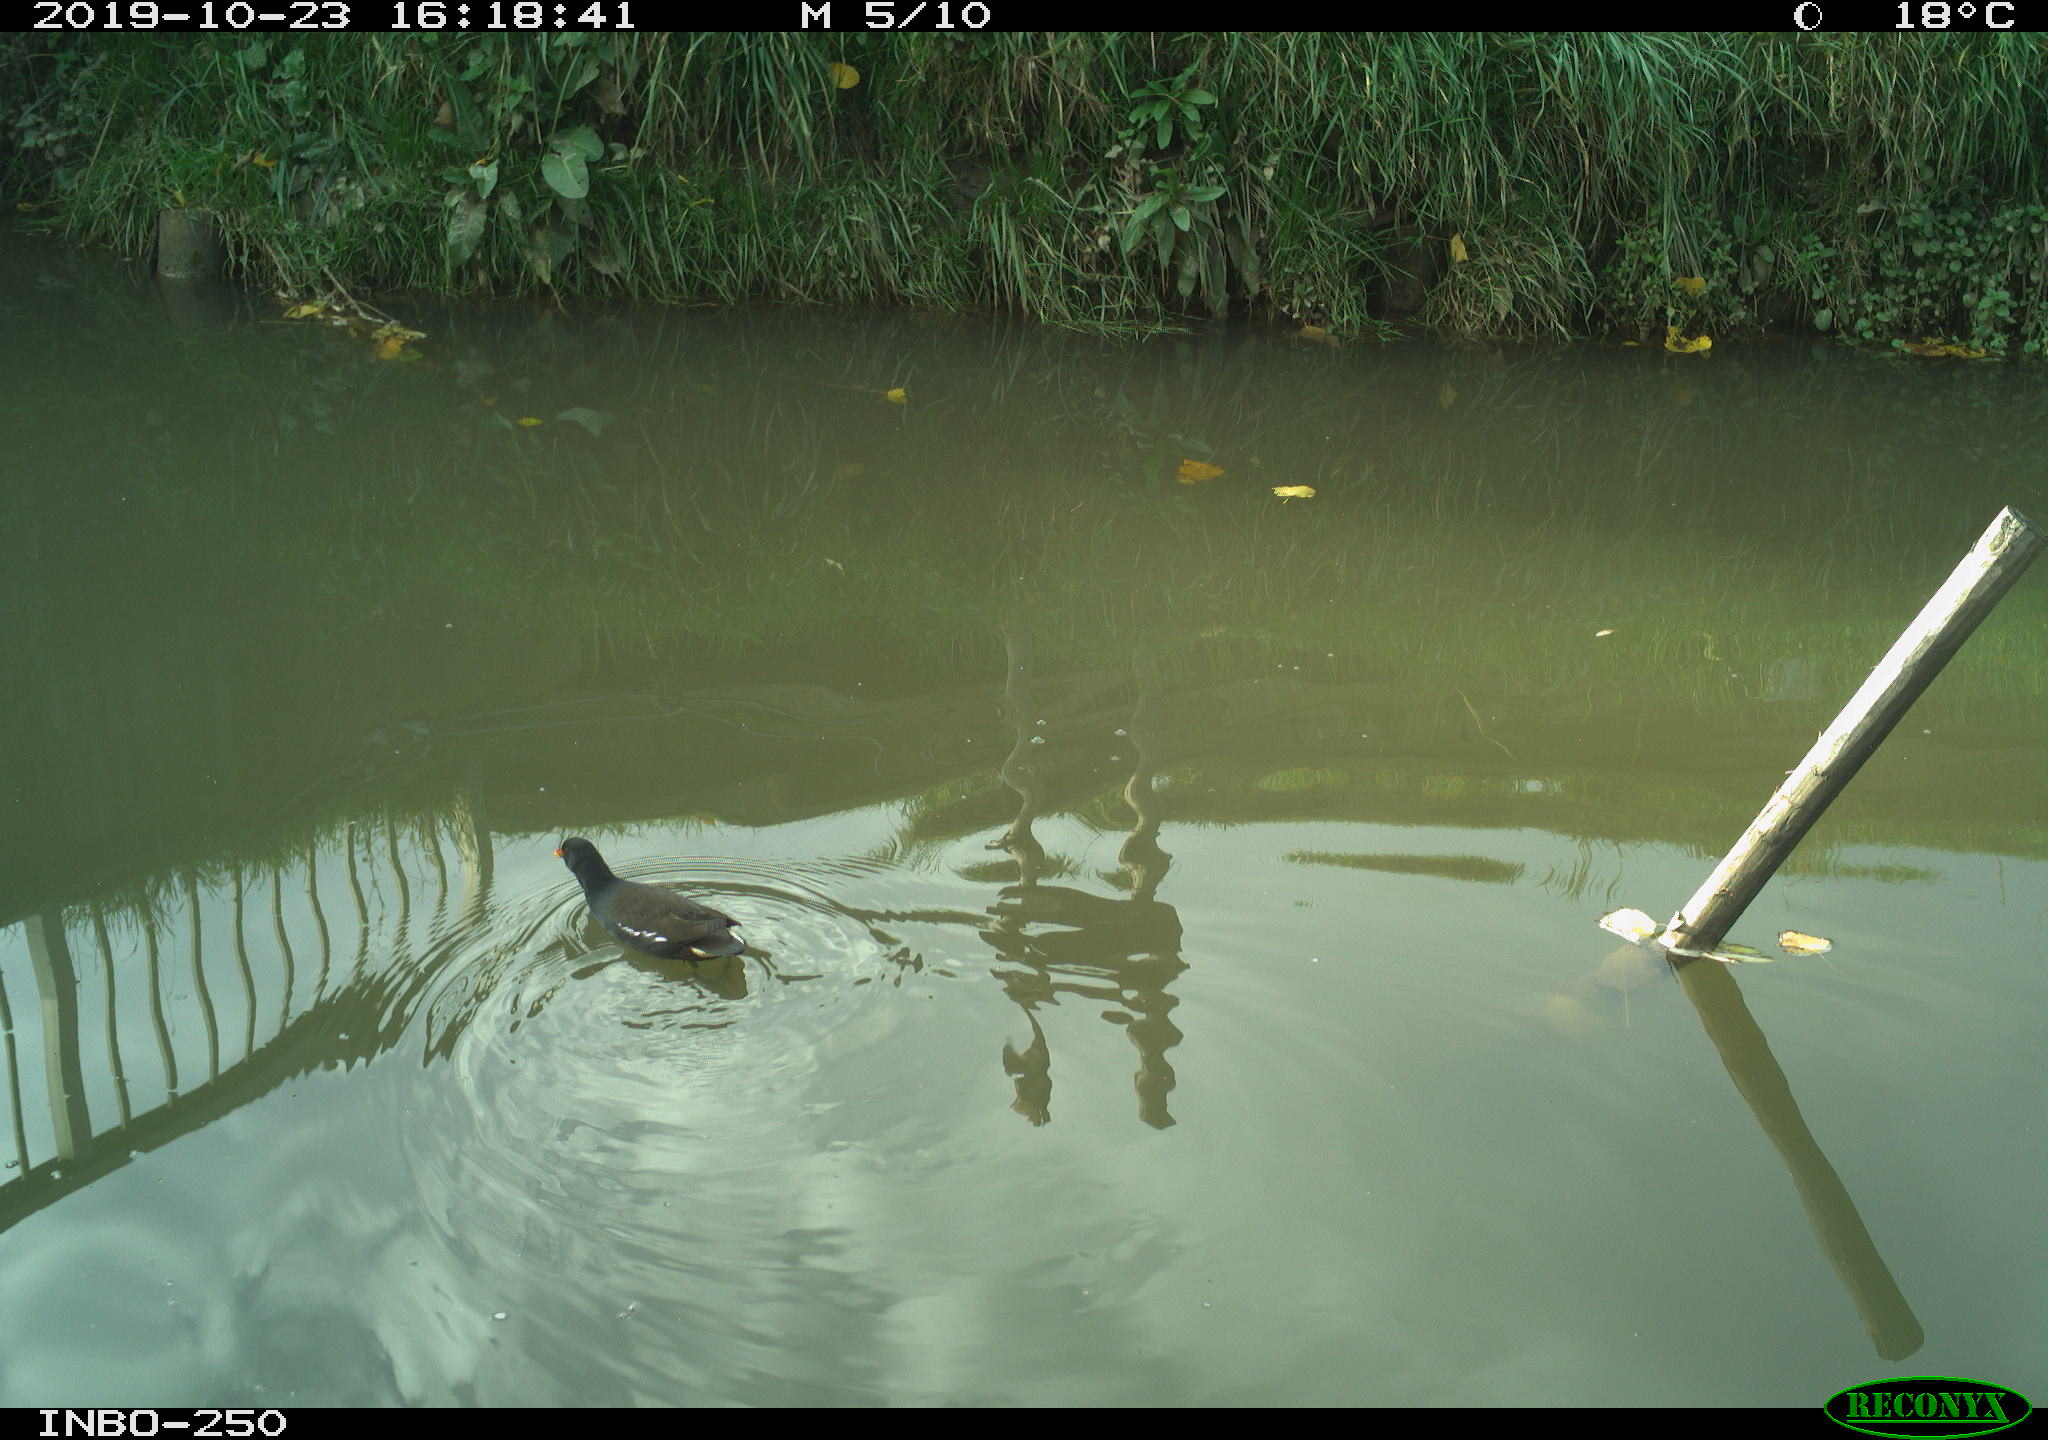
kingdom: Animalia
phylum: Chordata
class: Aves
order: Gruiformes
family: Rallidae
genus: Gallinula
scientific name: Gallinula chloropus
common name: Common moorhen
